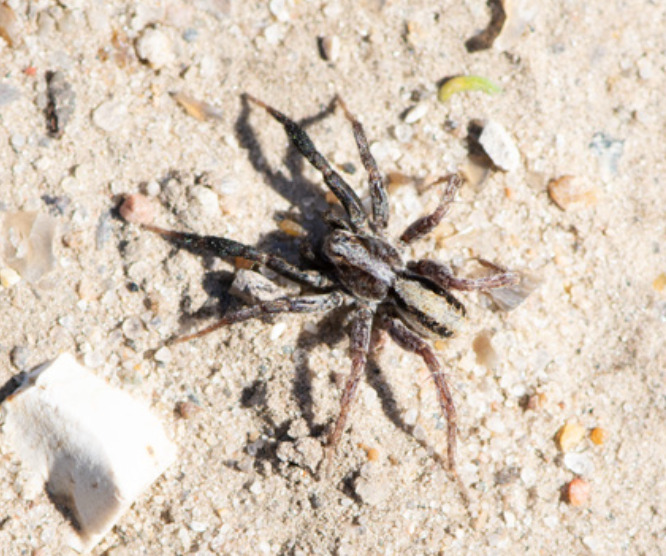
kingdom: Animalia
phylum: Arthropoda
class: Arachnida
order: Araneae
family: Lycosidae
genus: Alopecosa
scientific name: Alopecosa barbipes
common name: Klitkæmpejæger
